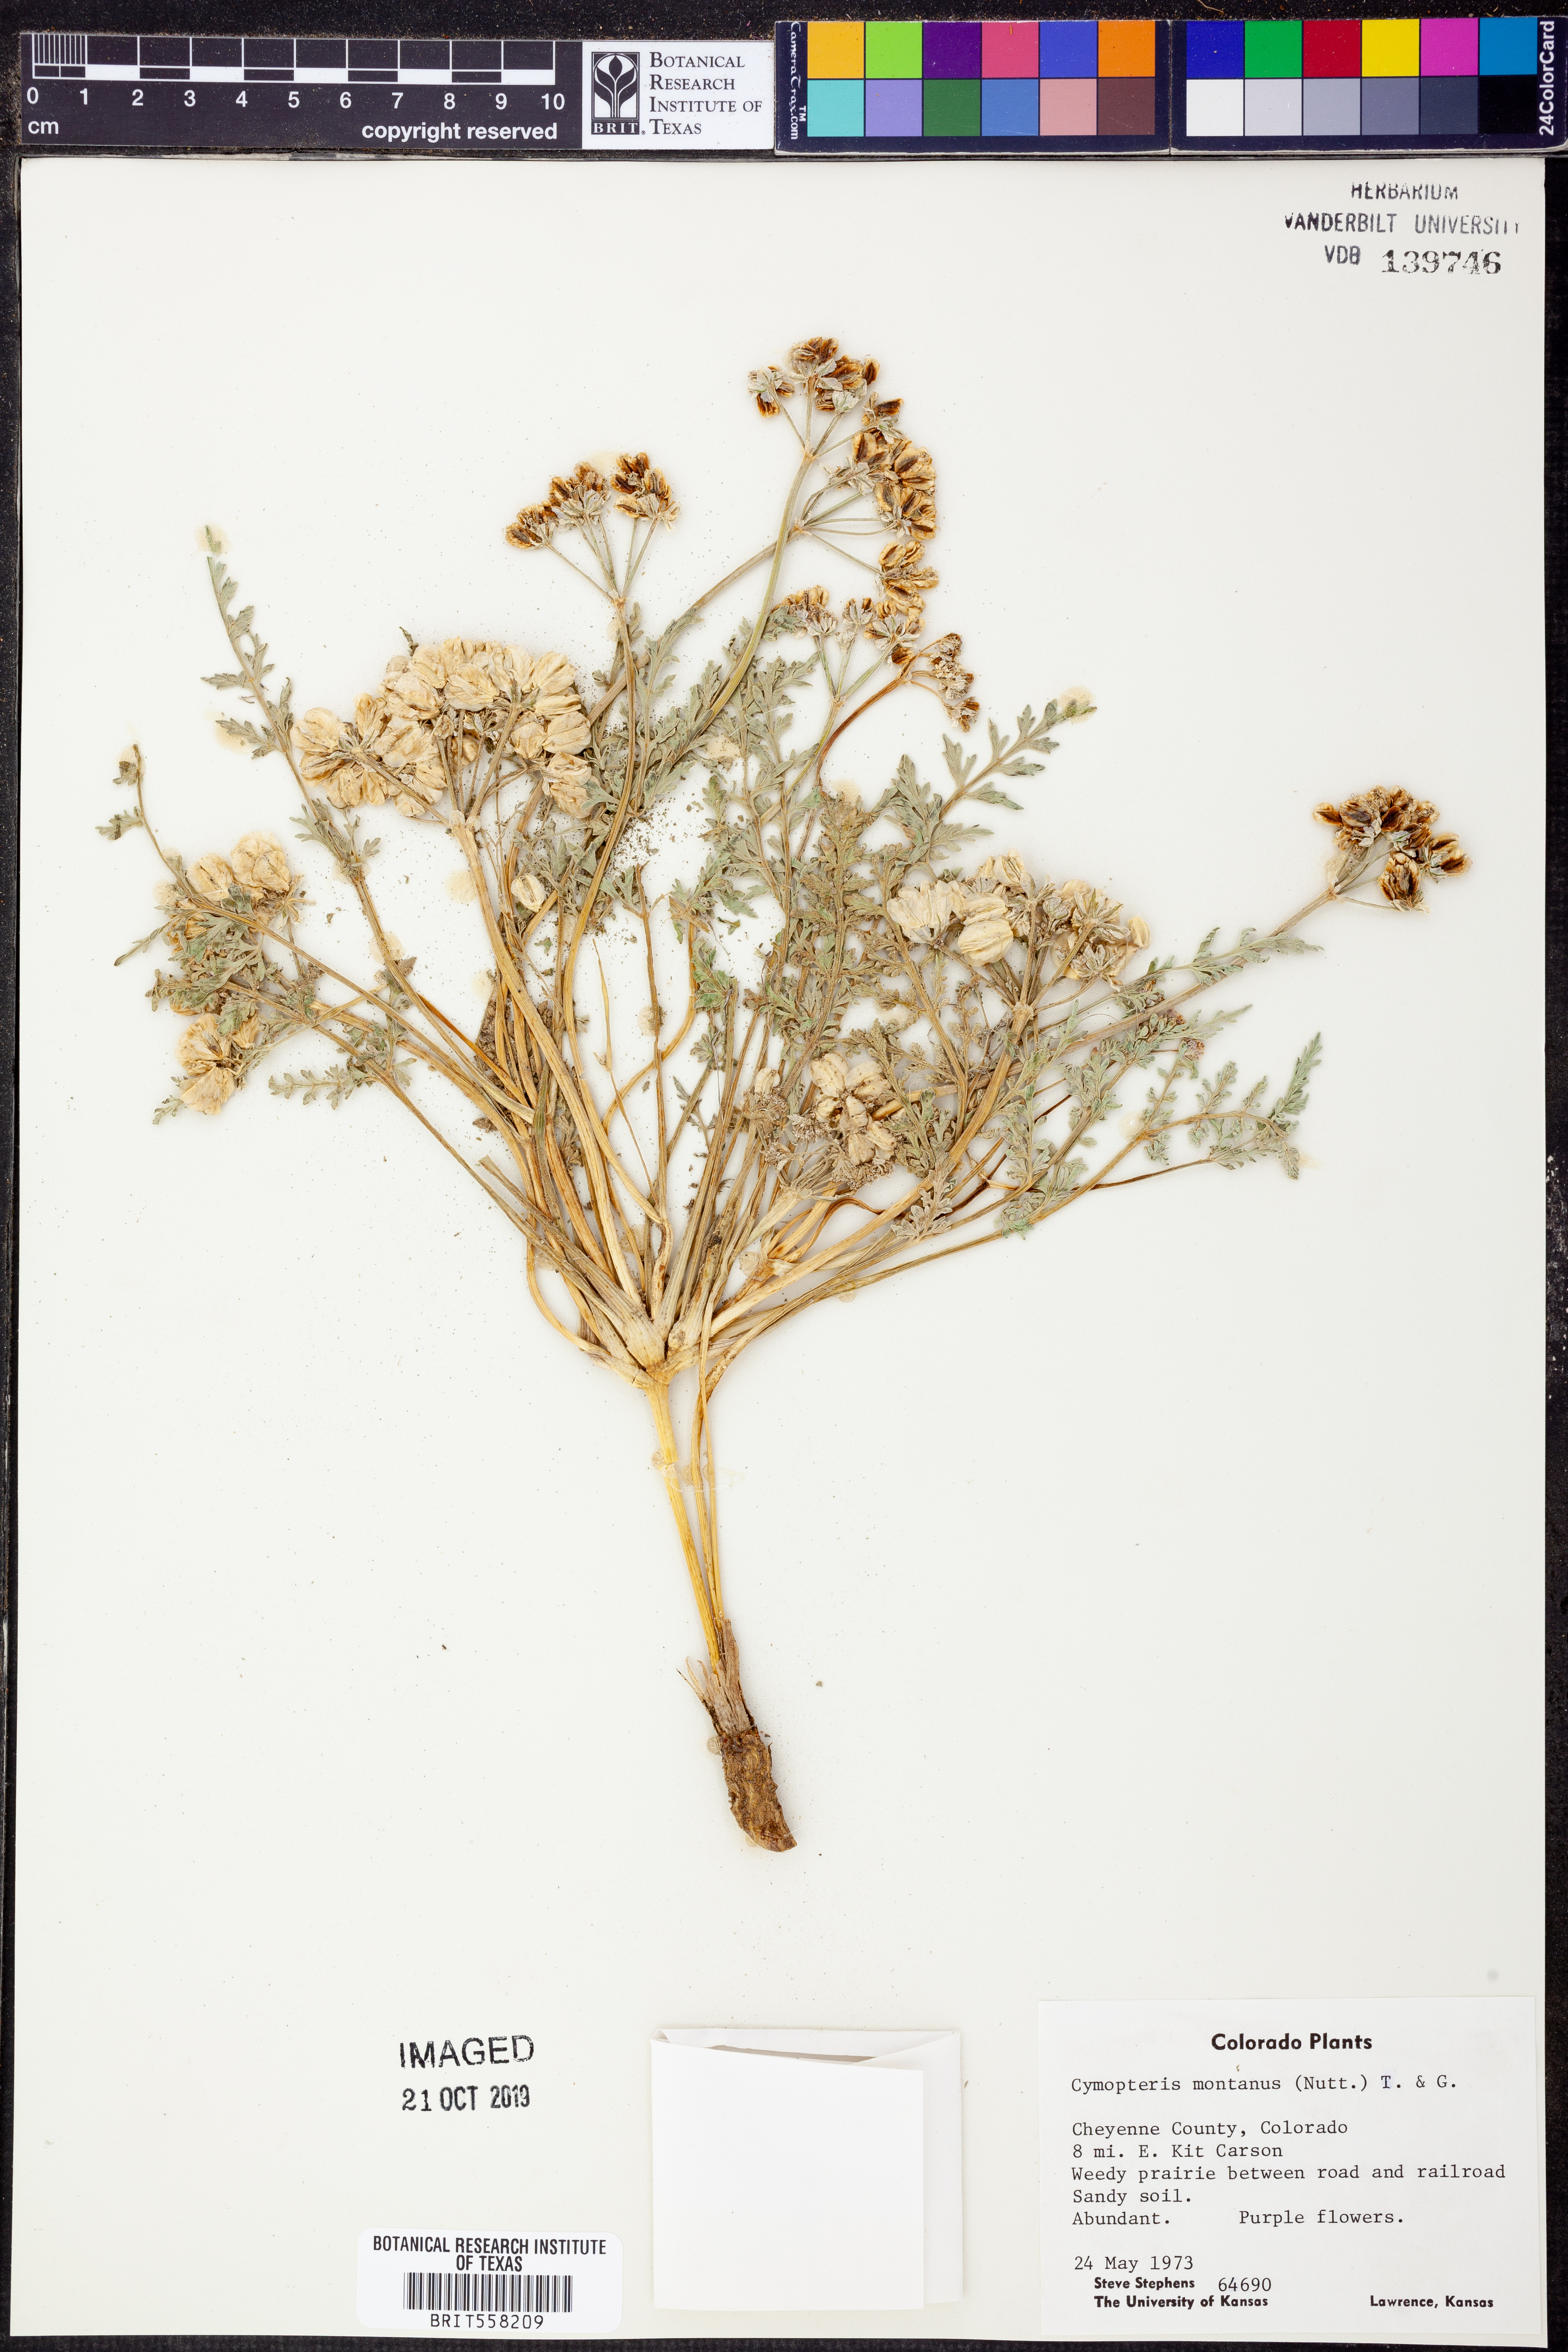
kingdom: Plantae
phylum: Tracheophyta
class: Magnoliopsida
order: Apiales
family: Apiaceae
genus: Vesper
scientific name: Vesper montanus
